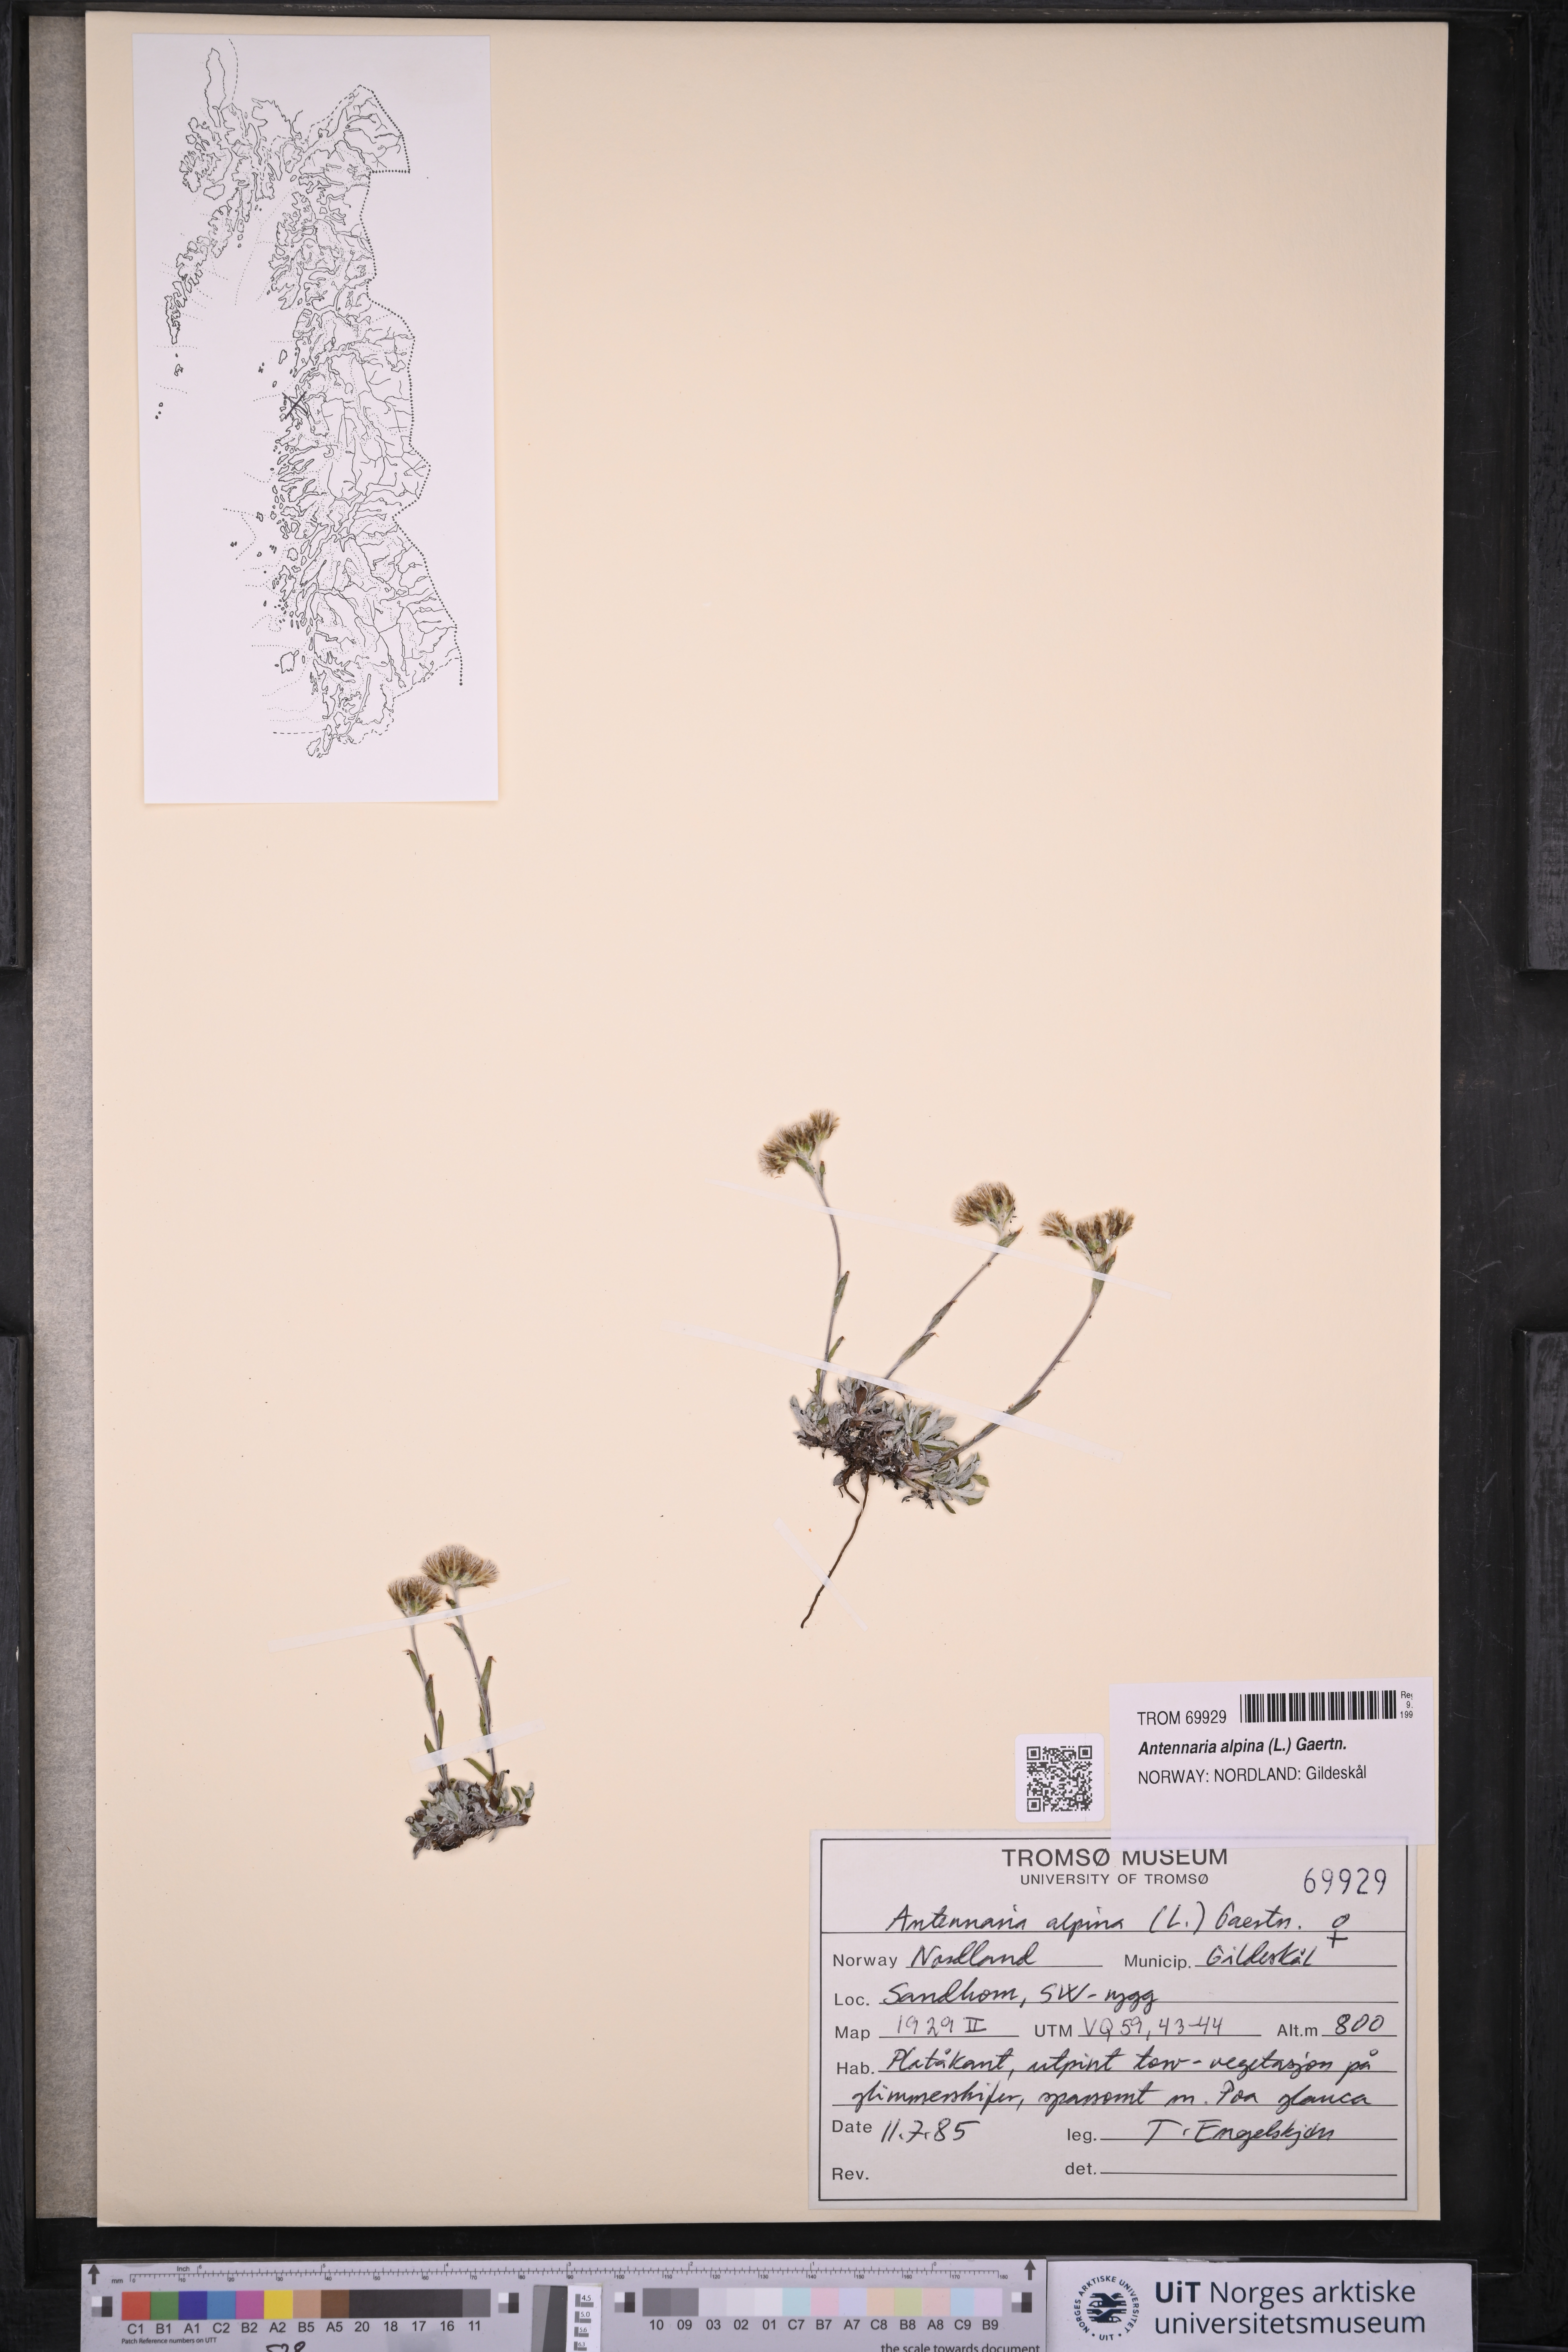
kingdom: Plantae
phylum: Tracheophyta
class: Magnoliopsida
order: Asterales
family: Asteraceae
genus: Antennaria
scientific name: Antennaria alpina
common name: Alpine pussytoes
